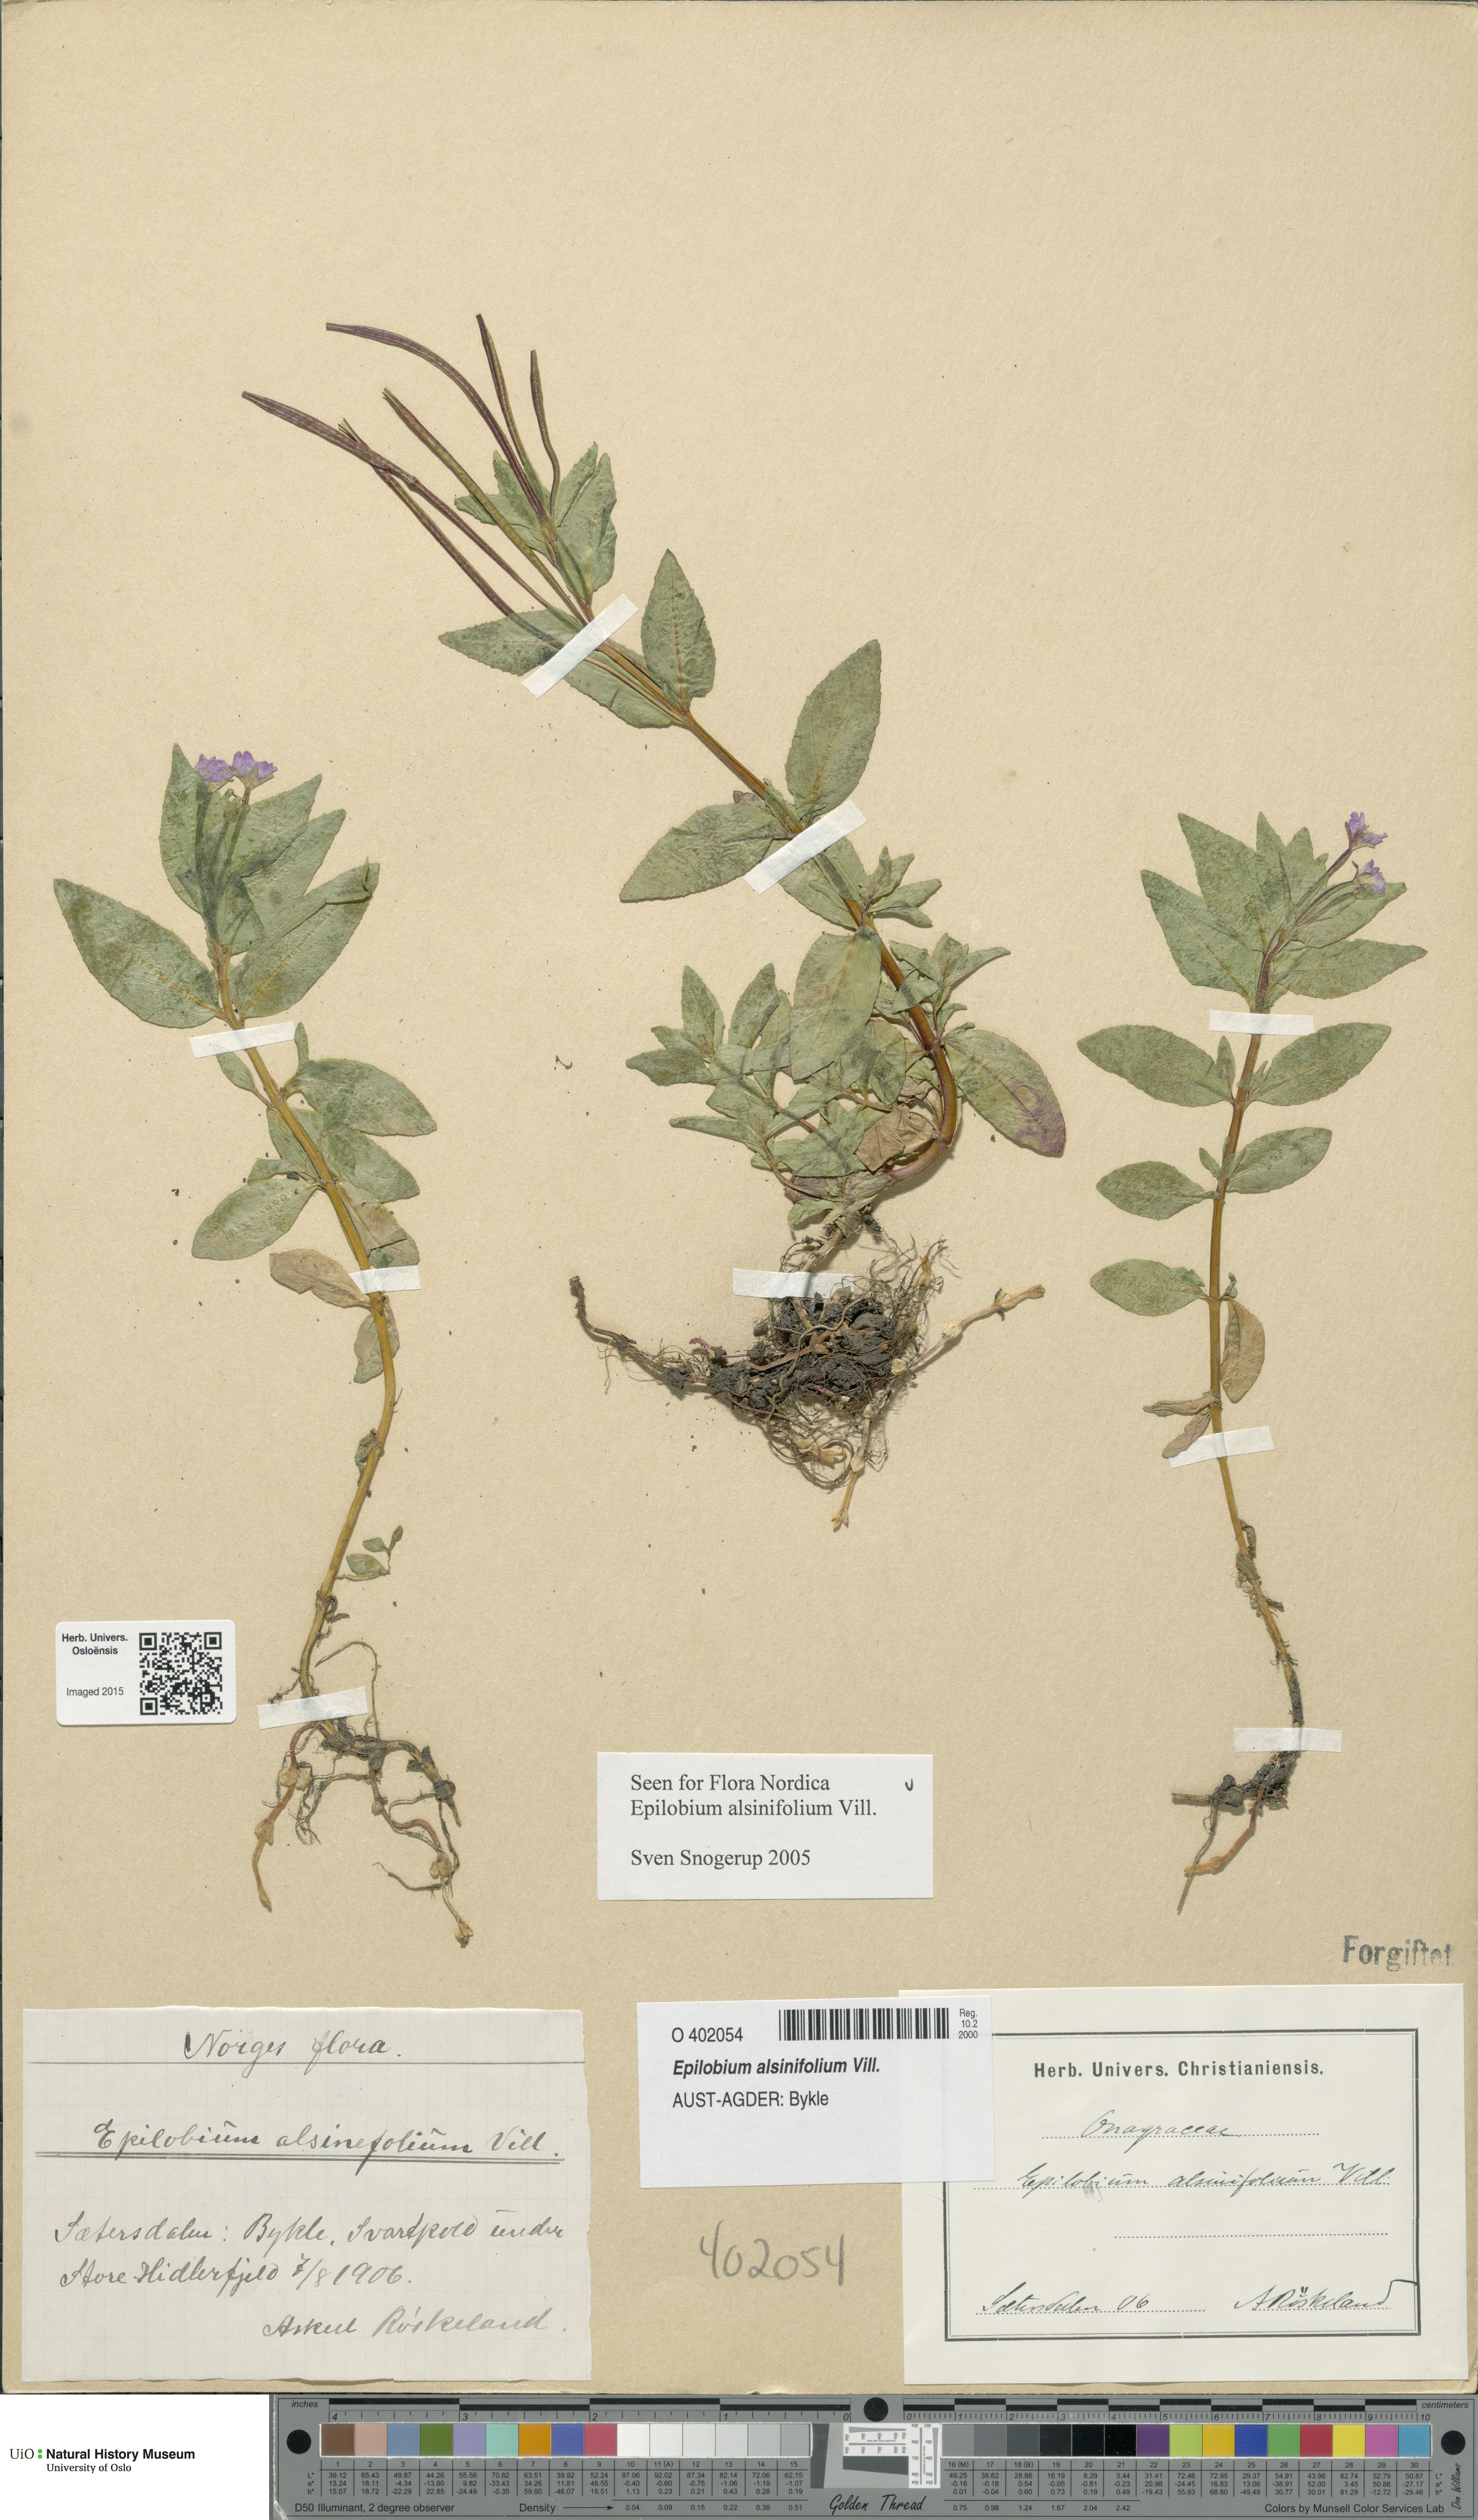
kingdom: Plantae
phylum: Tracheophyta
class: Magnoliopsida
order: Myrtales
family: Onagraceae
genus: Epilobium
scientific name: Epilobium alsinifolium
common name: Chickweed willowherb
